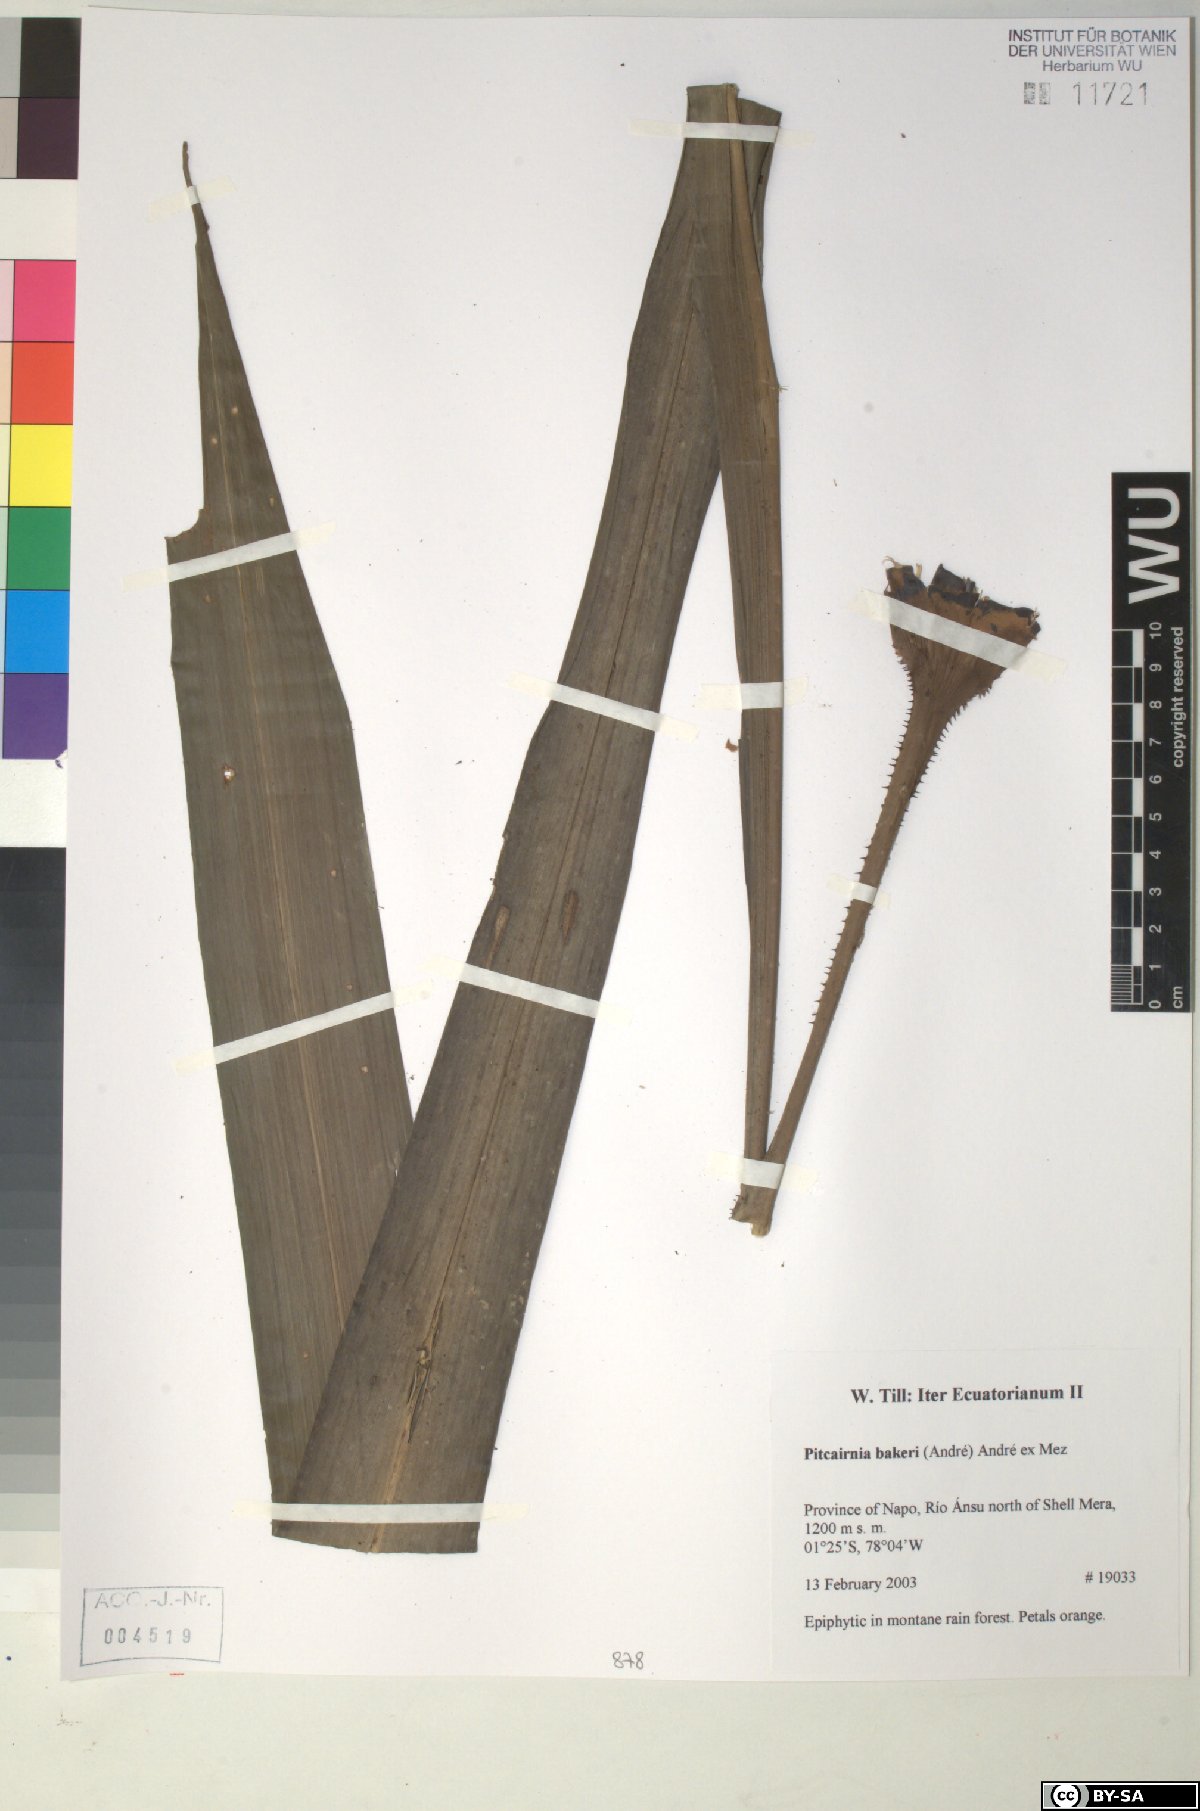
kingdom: Plantae
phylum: Tracheophyta
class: Liliopsida
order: Poales
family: Bromeliaceae
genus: Pitcairnia
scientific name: Pitcairnia bakeri
